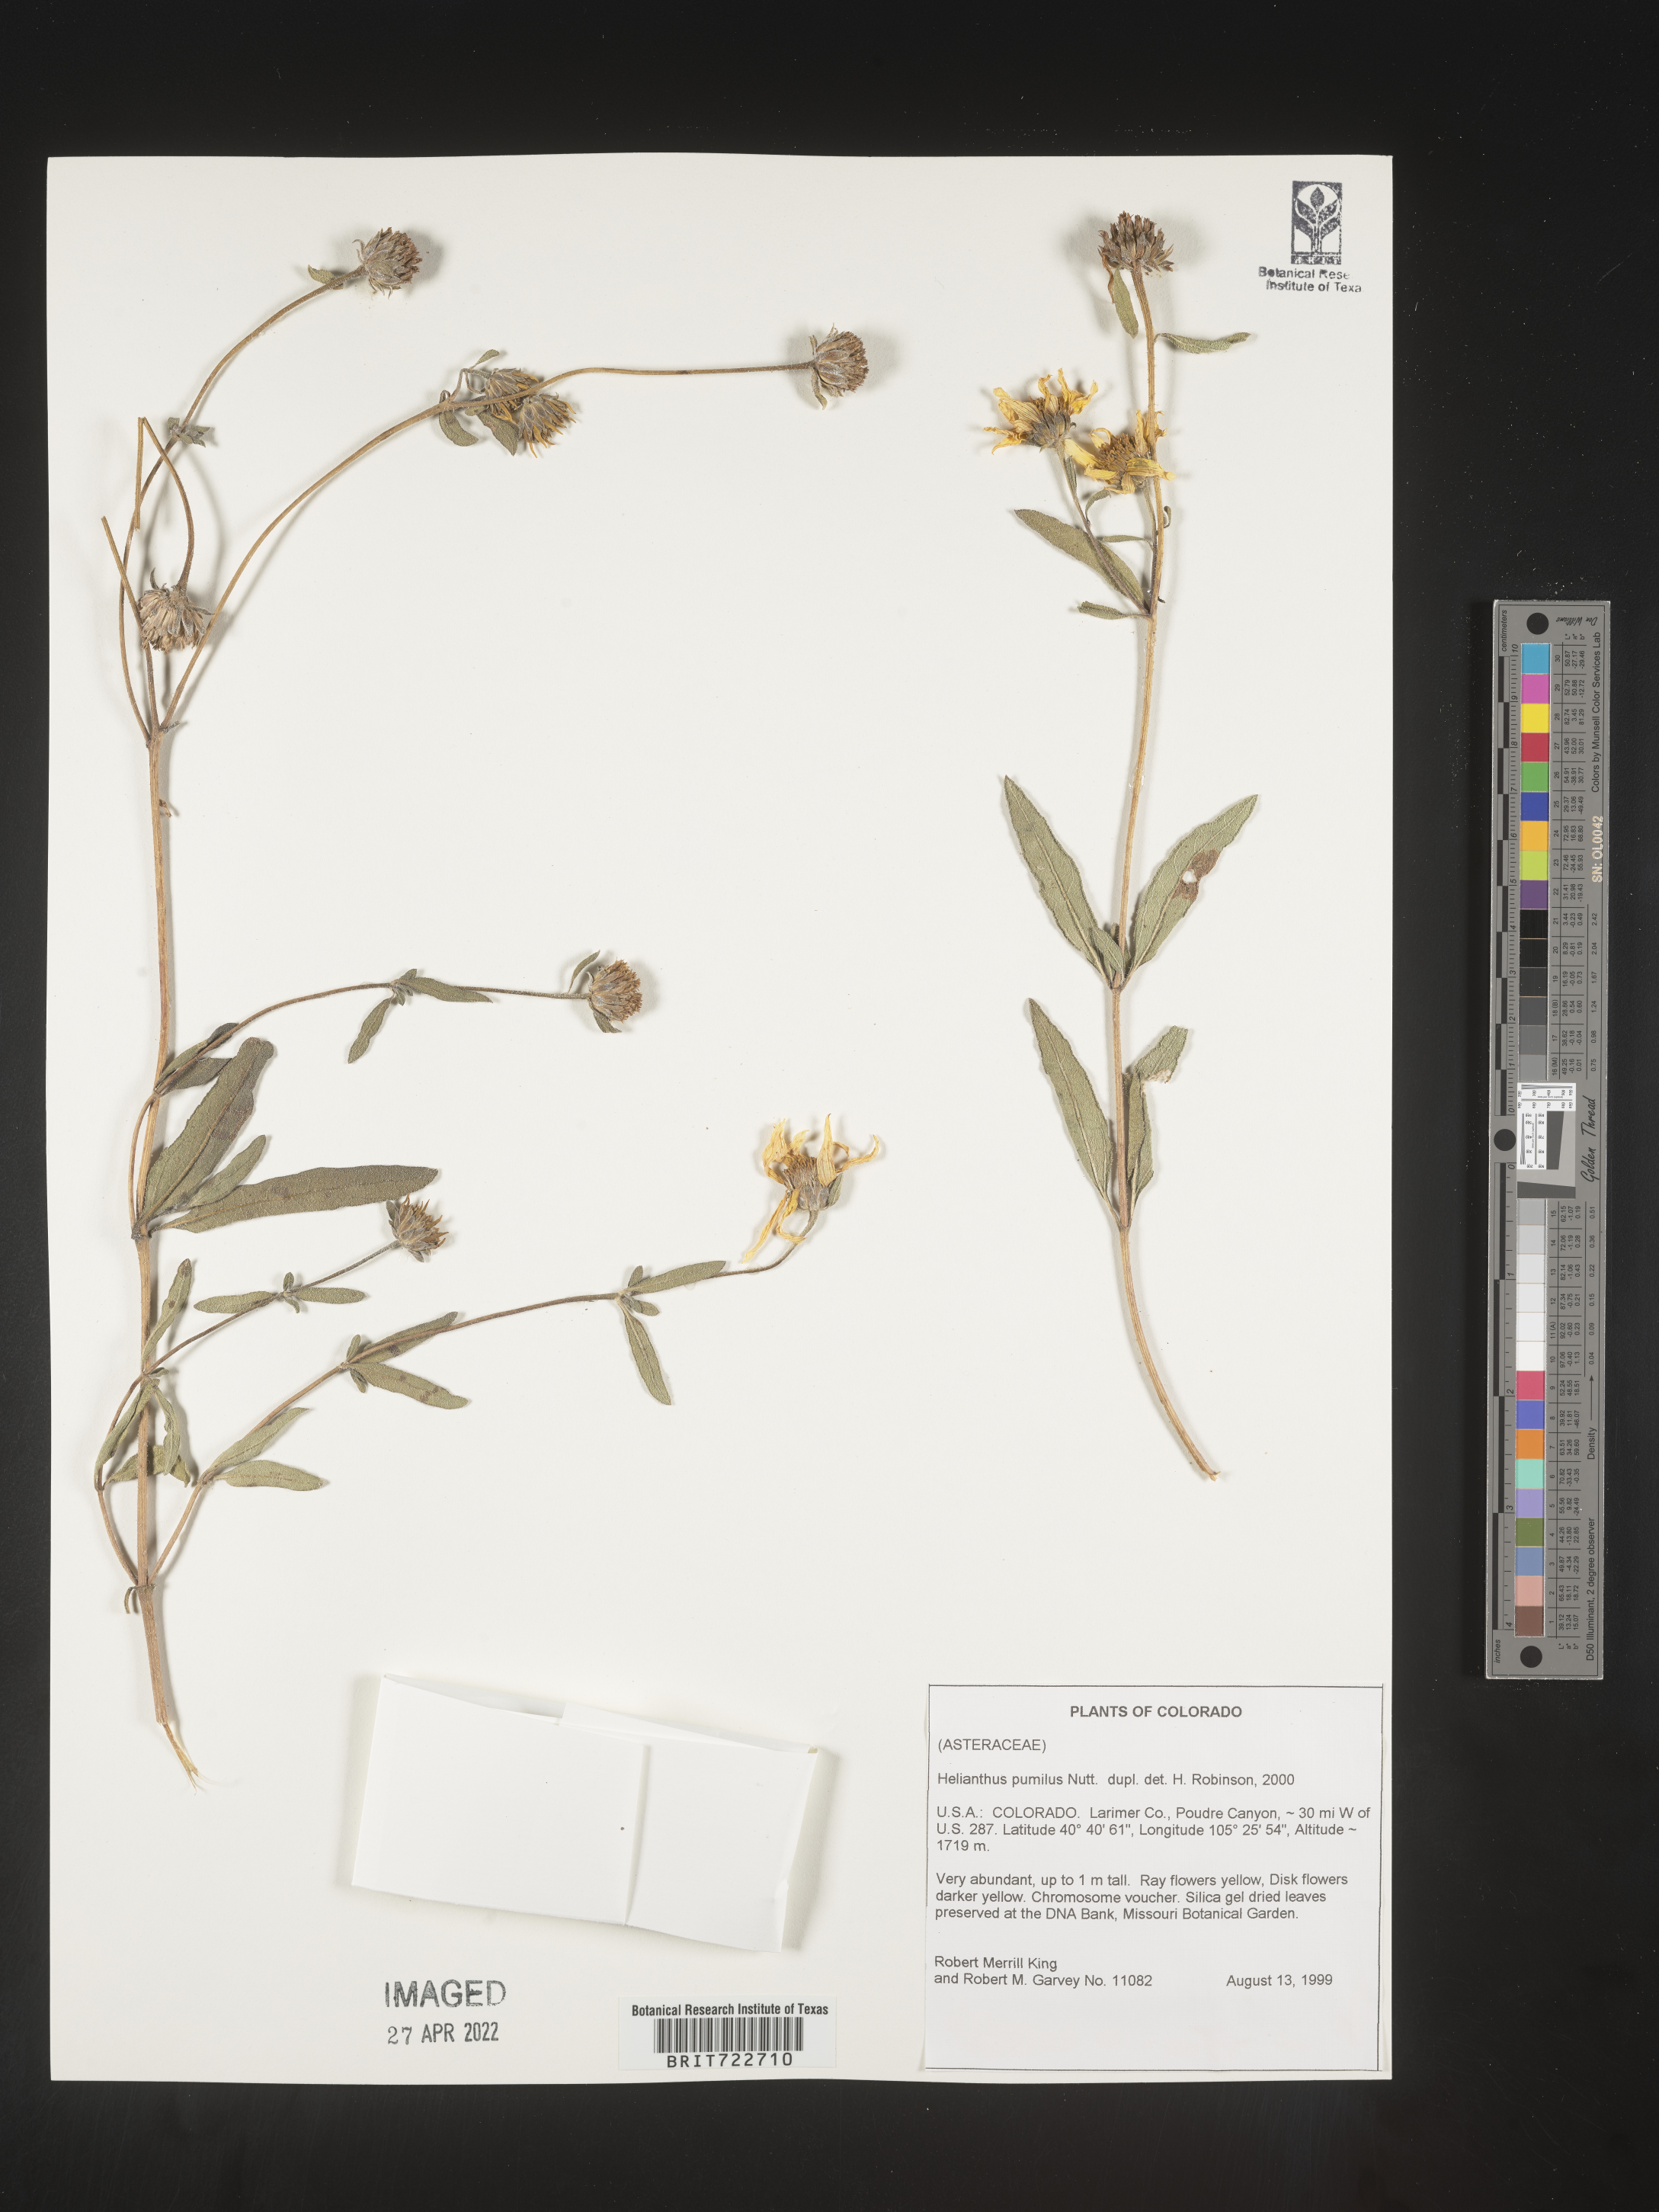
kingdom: Plantae
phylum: Tracheophyta
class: Magnoliopsida
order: Asterales
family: Asteraceae
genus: Helianthus
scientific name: Helianthus pumilus
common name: Dwarf sunflower
